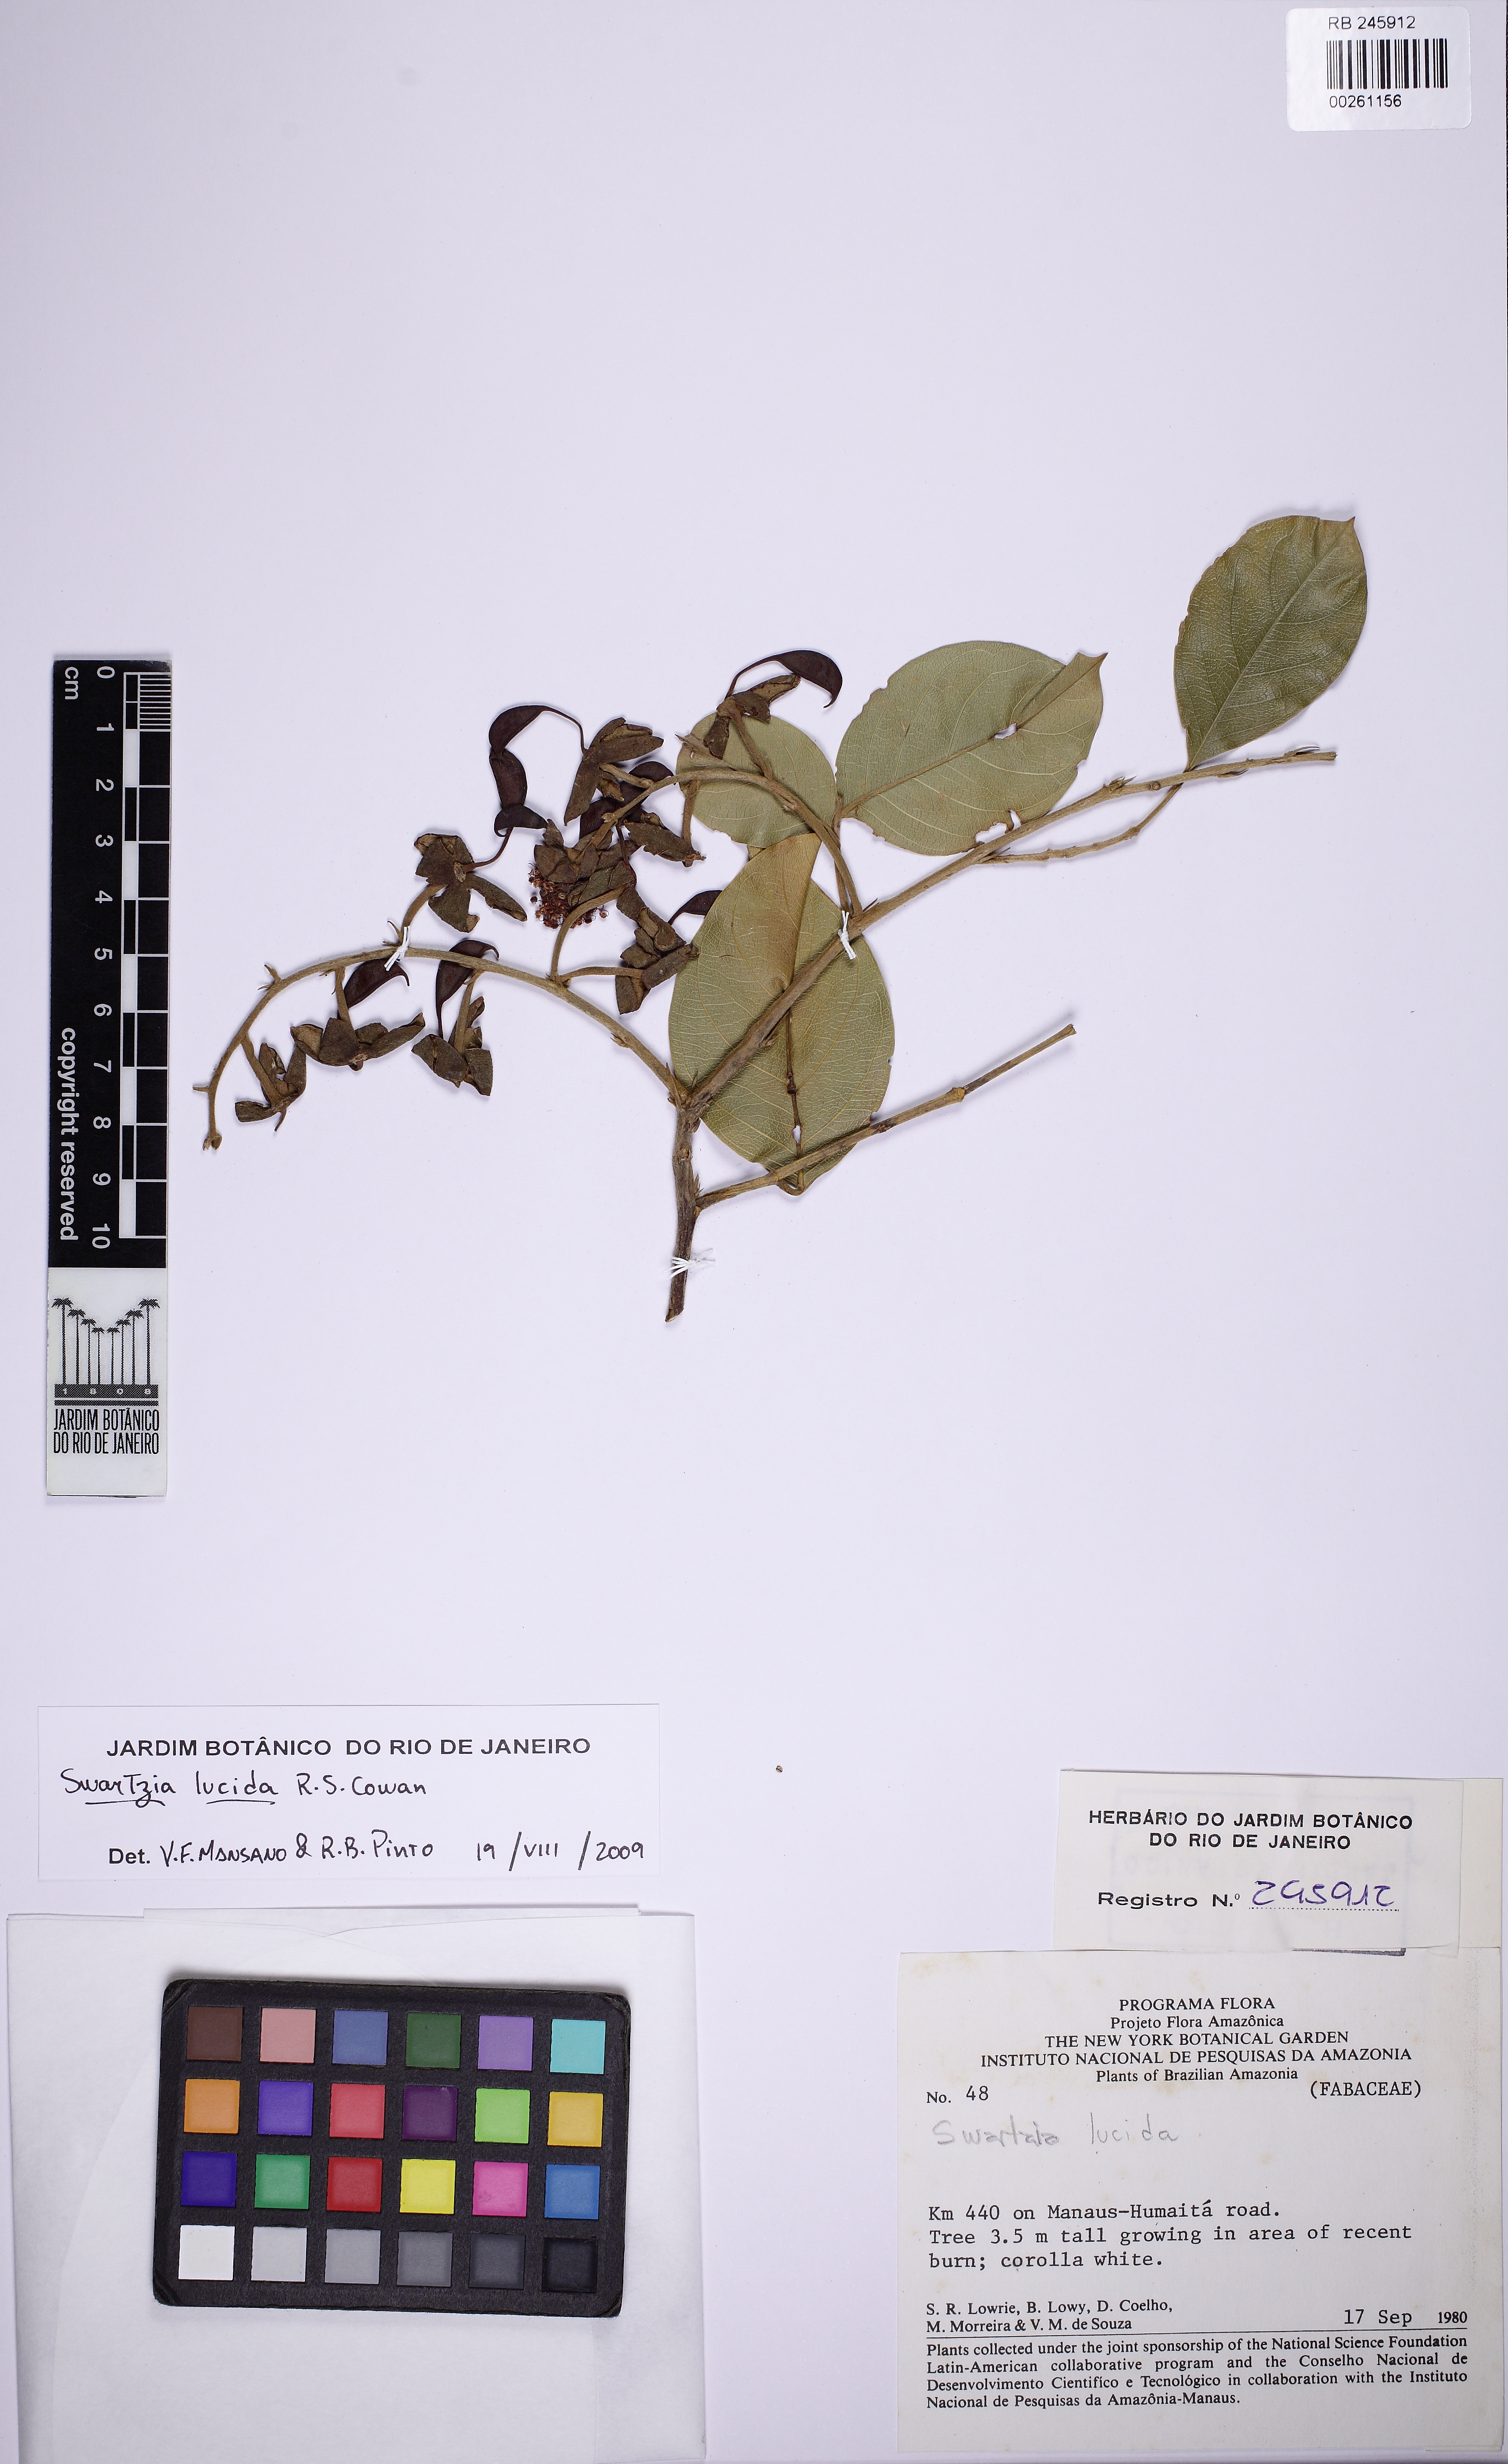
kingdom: Plantae
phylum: Tracheophyta
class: Magnoliopsida
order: Fabales
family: Fabaceae
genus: Swartzia
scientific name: Swartzia lucida
